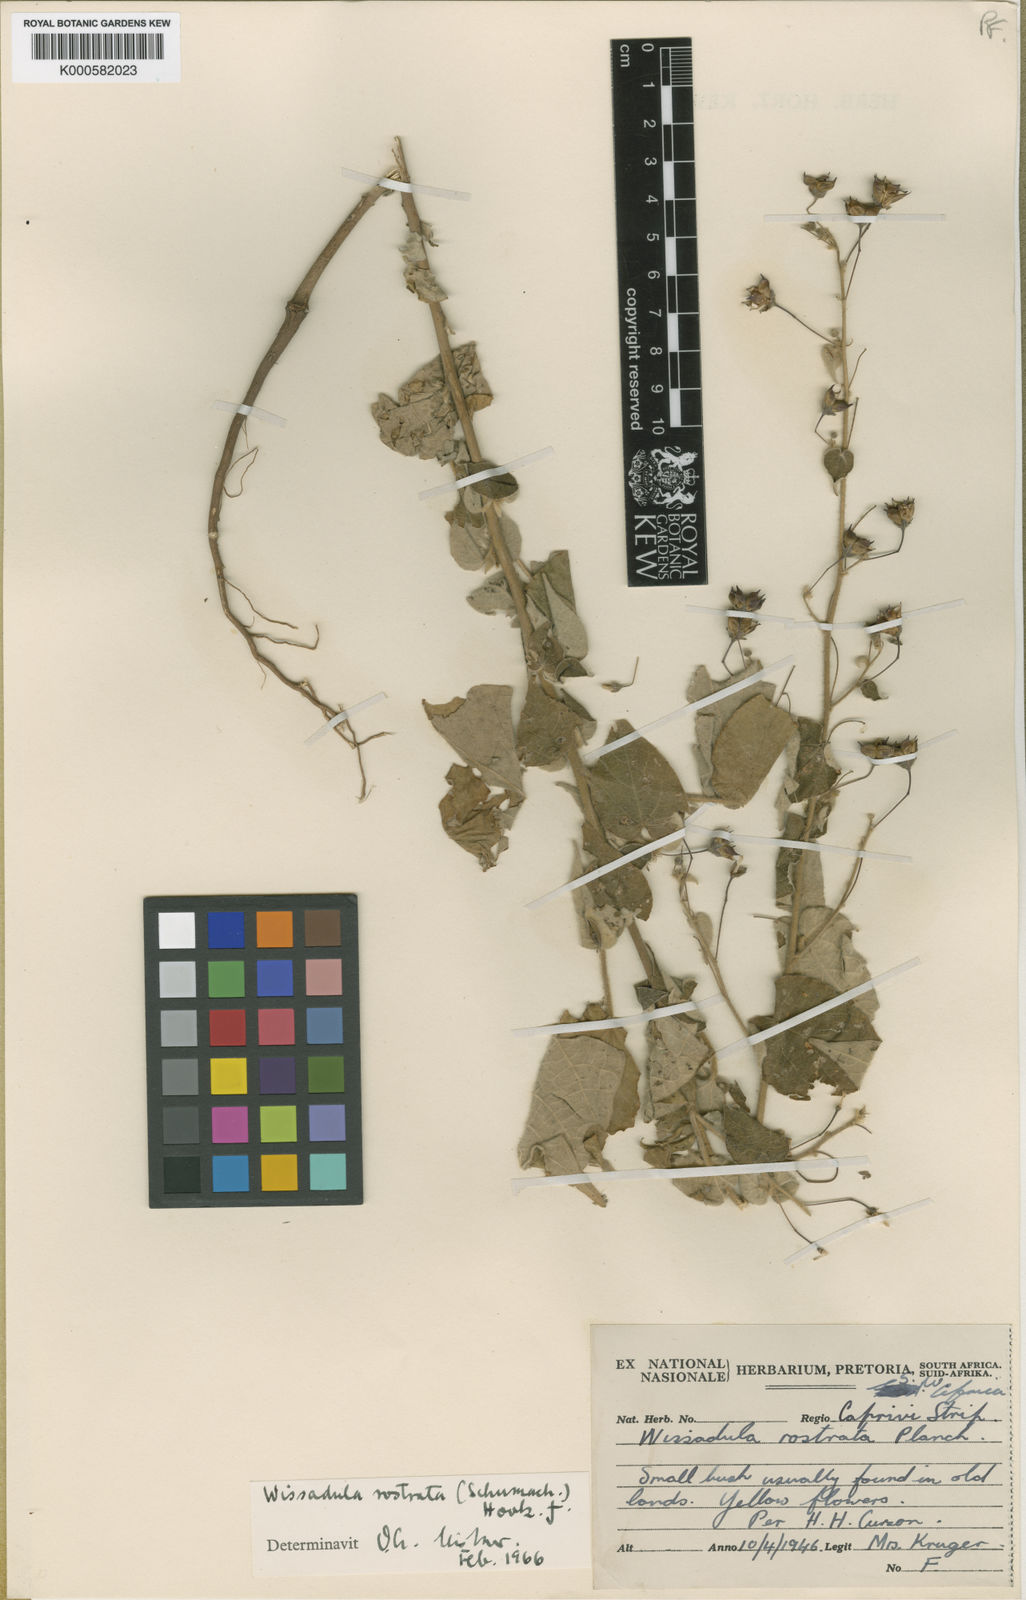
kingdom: Plantae
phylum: Tracheophyta
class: Magnoliopsida
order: Malvales
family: Malvaceae
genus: Wissadula
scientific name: Wissadula
